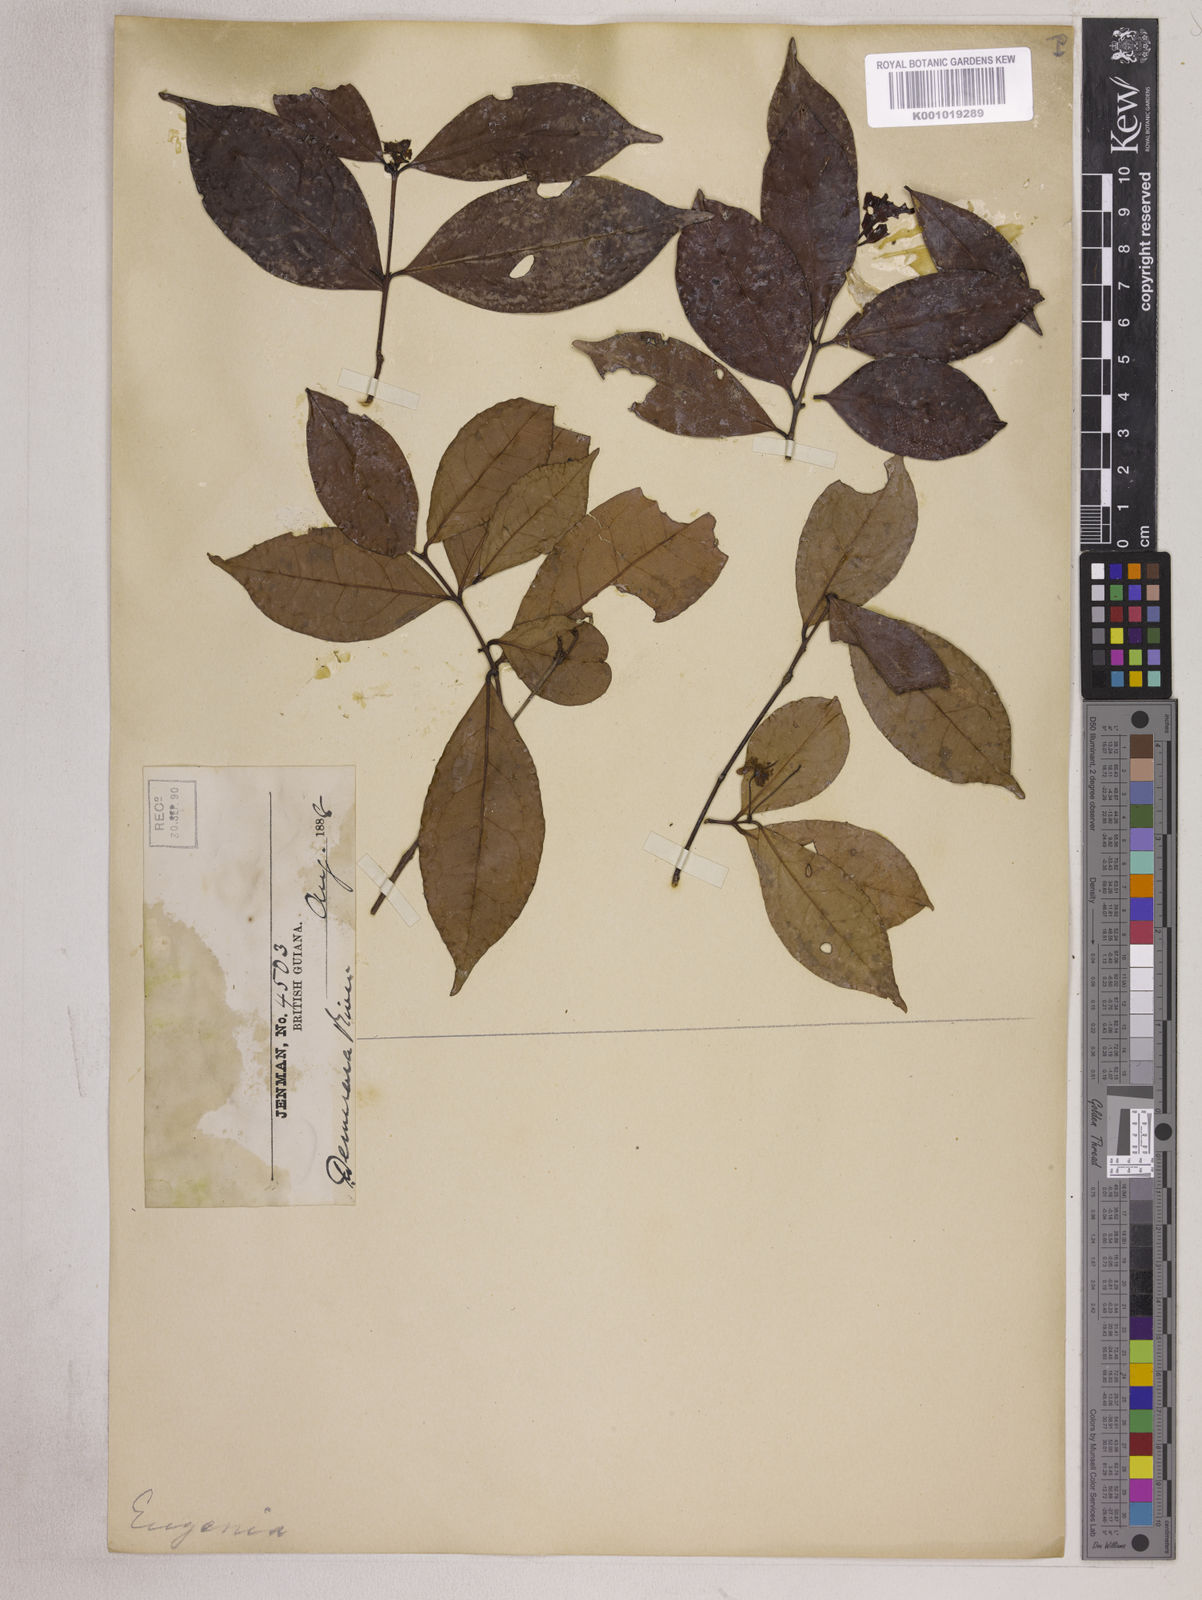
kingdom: Plantae
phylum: Tracheophyta
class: Magnoliopsida
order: Myrtales
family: Myrtaceae
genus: Eugenia
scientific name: Eugenia patrisii
